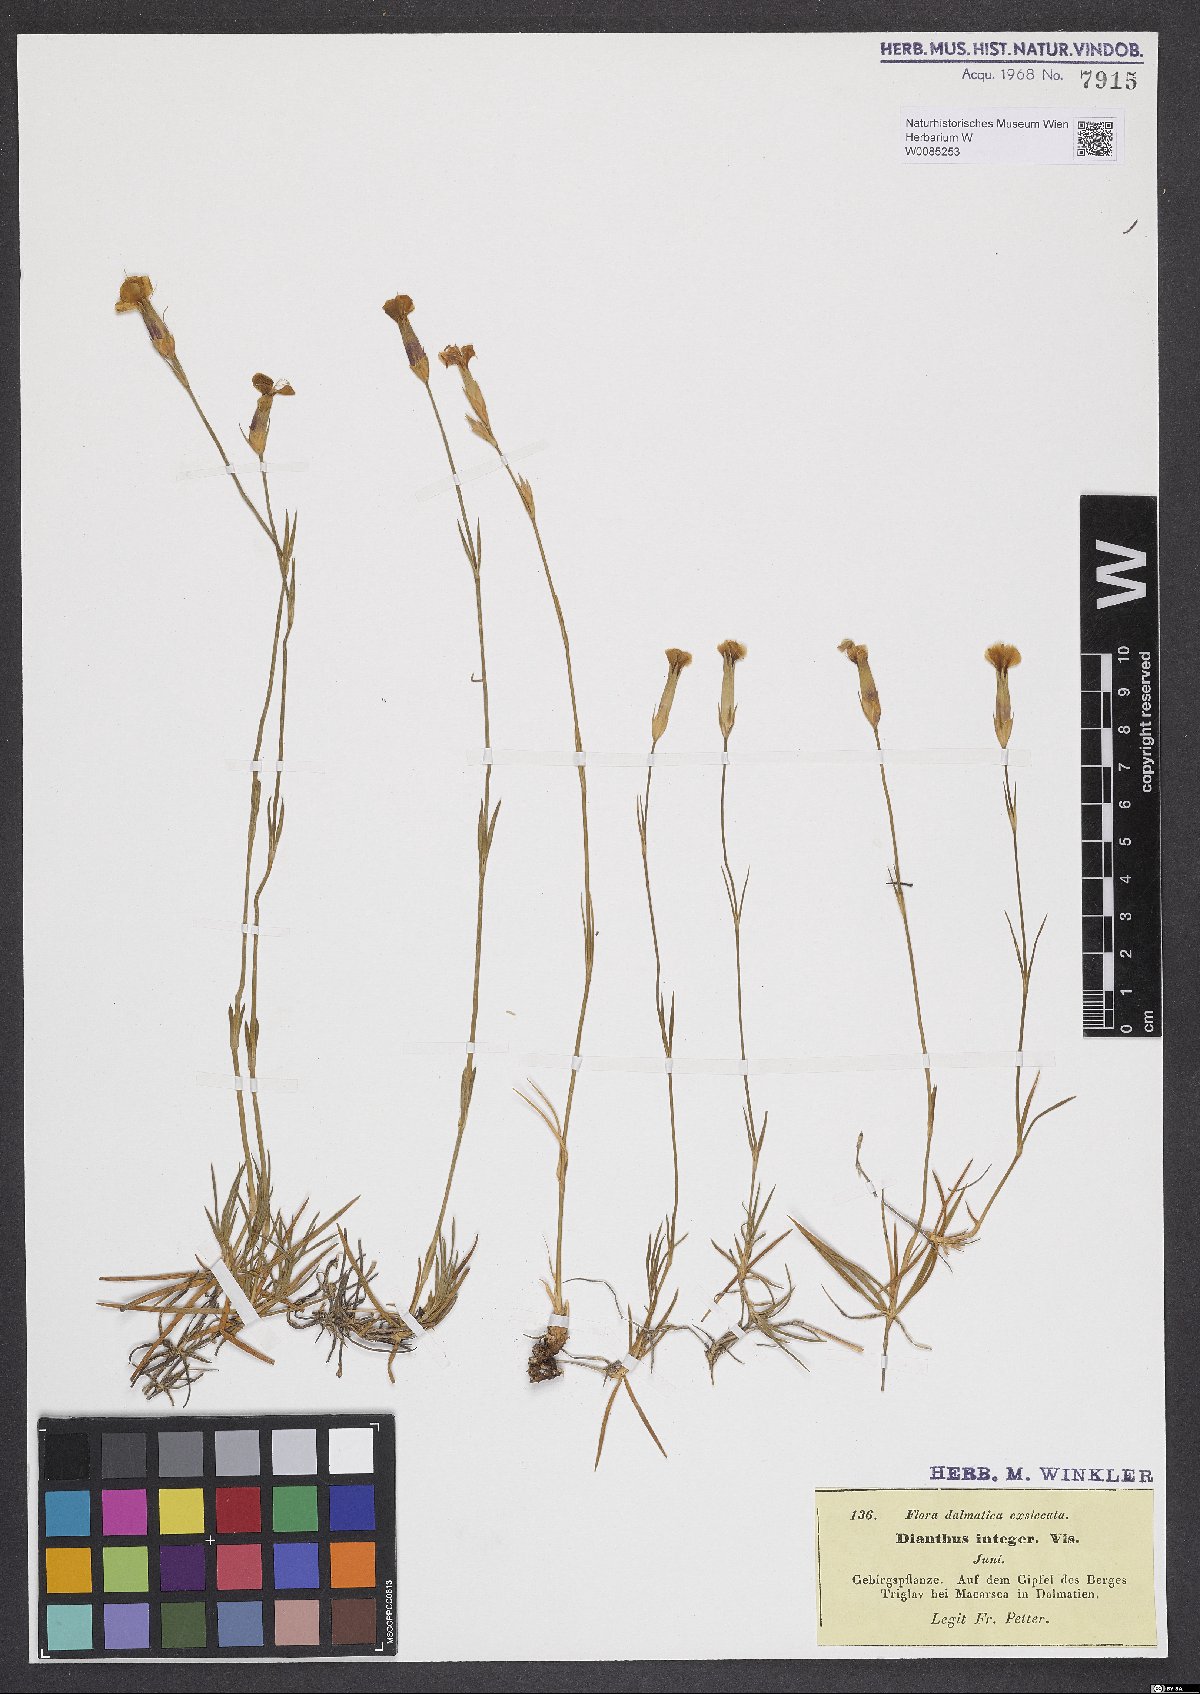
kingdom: Plantae
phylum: Tracheophyta
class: Magnoliopsida
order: Caryophyllales
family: Caryophyllaceae
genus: Dianthus
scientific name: Dianthus petraeus
